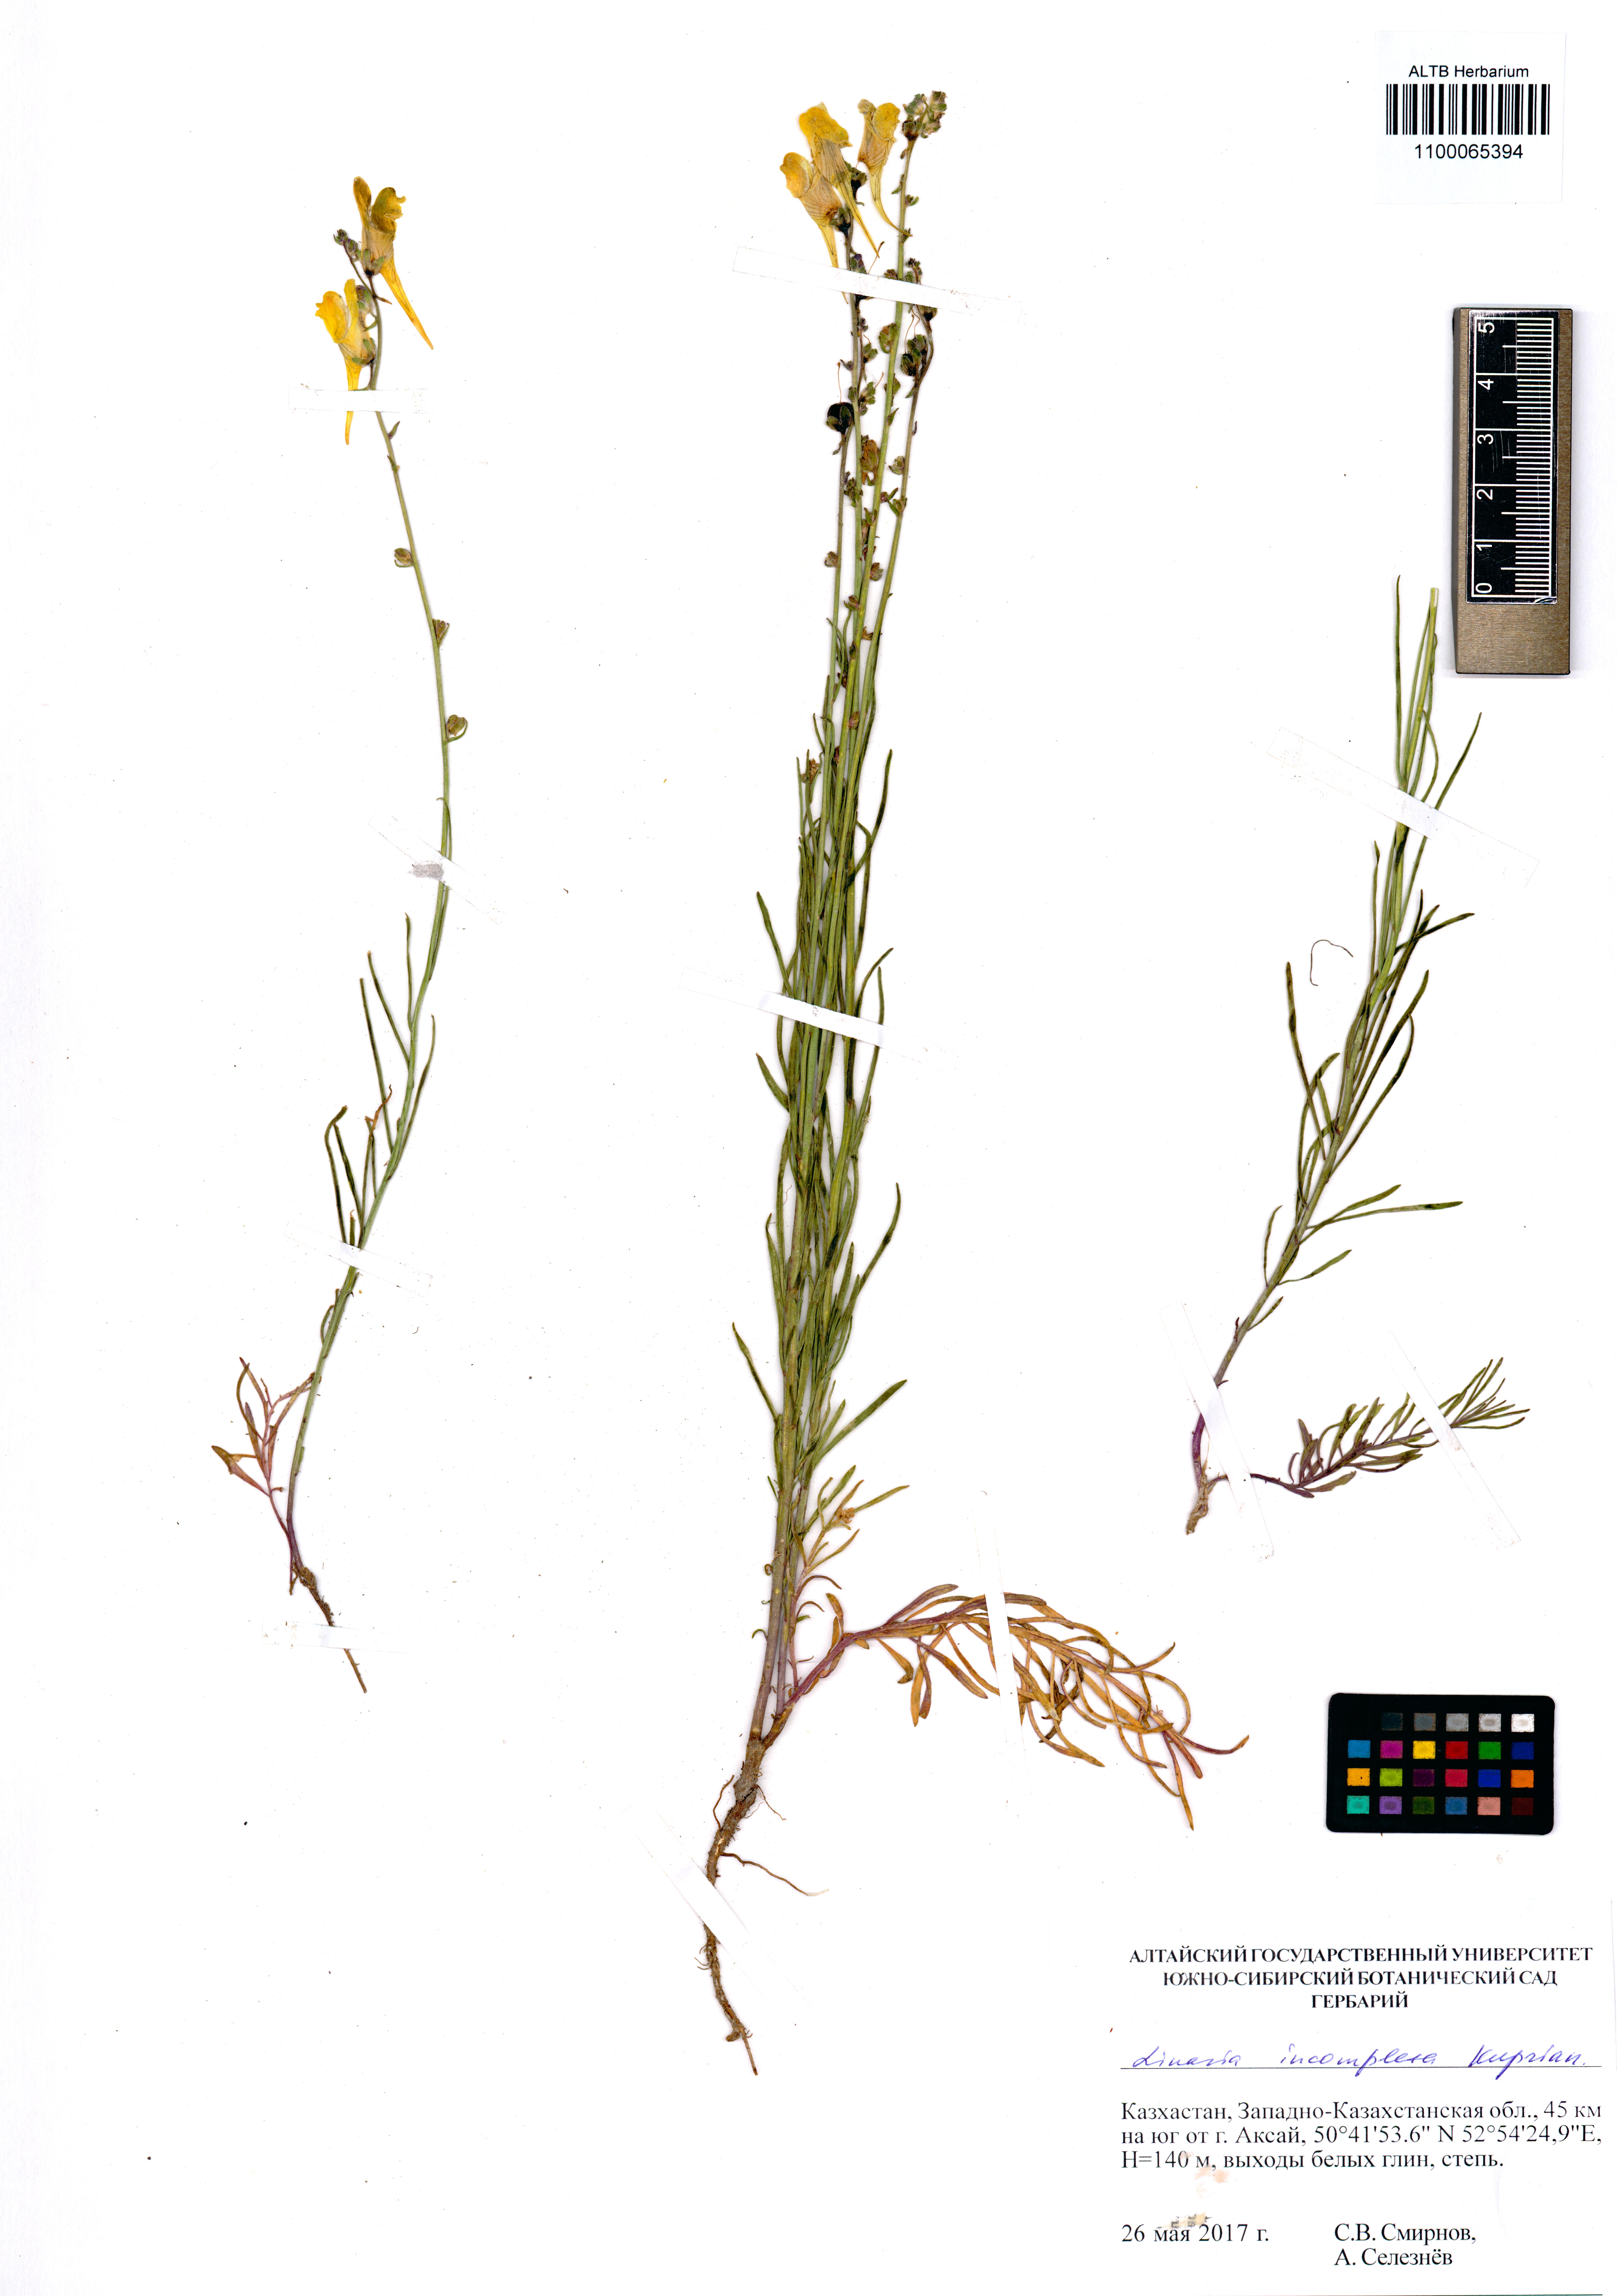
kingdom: Plantae
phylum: Tracheophyta
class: Magnoliopsida
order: Lamiales
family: Plantaginaceae
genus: Linaria
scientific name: Linaria incompleta
